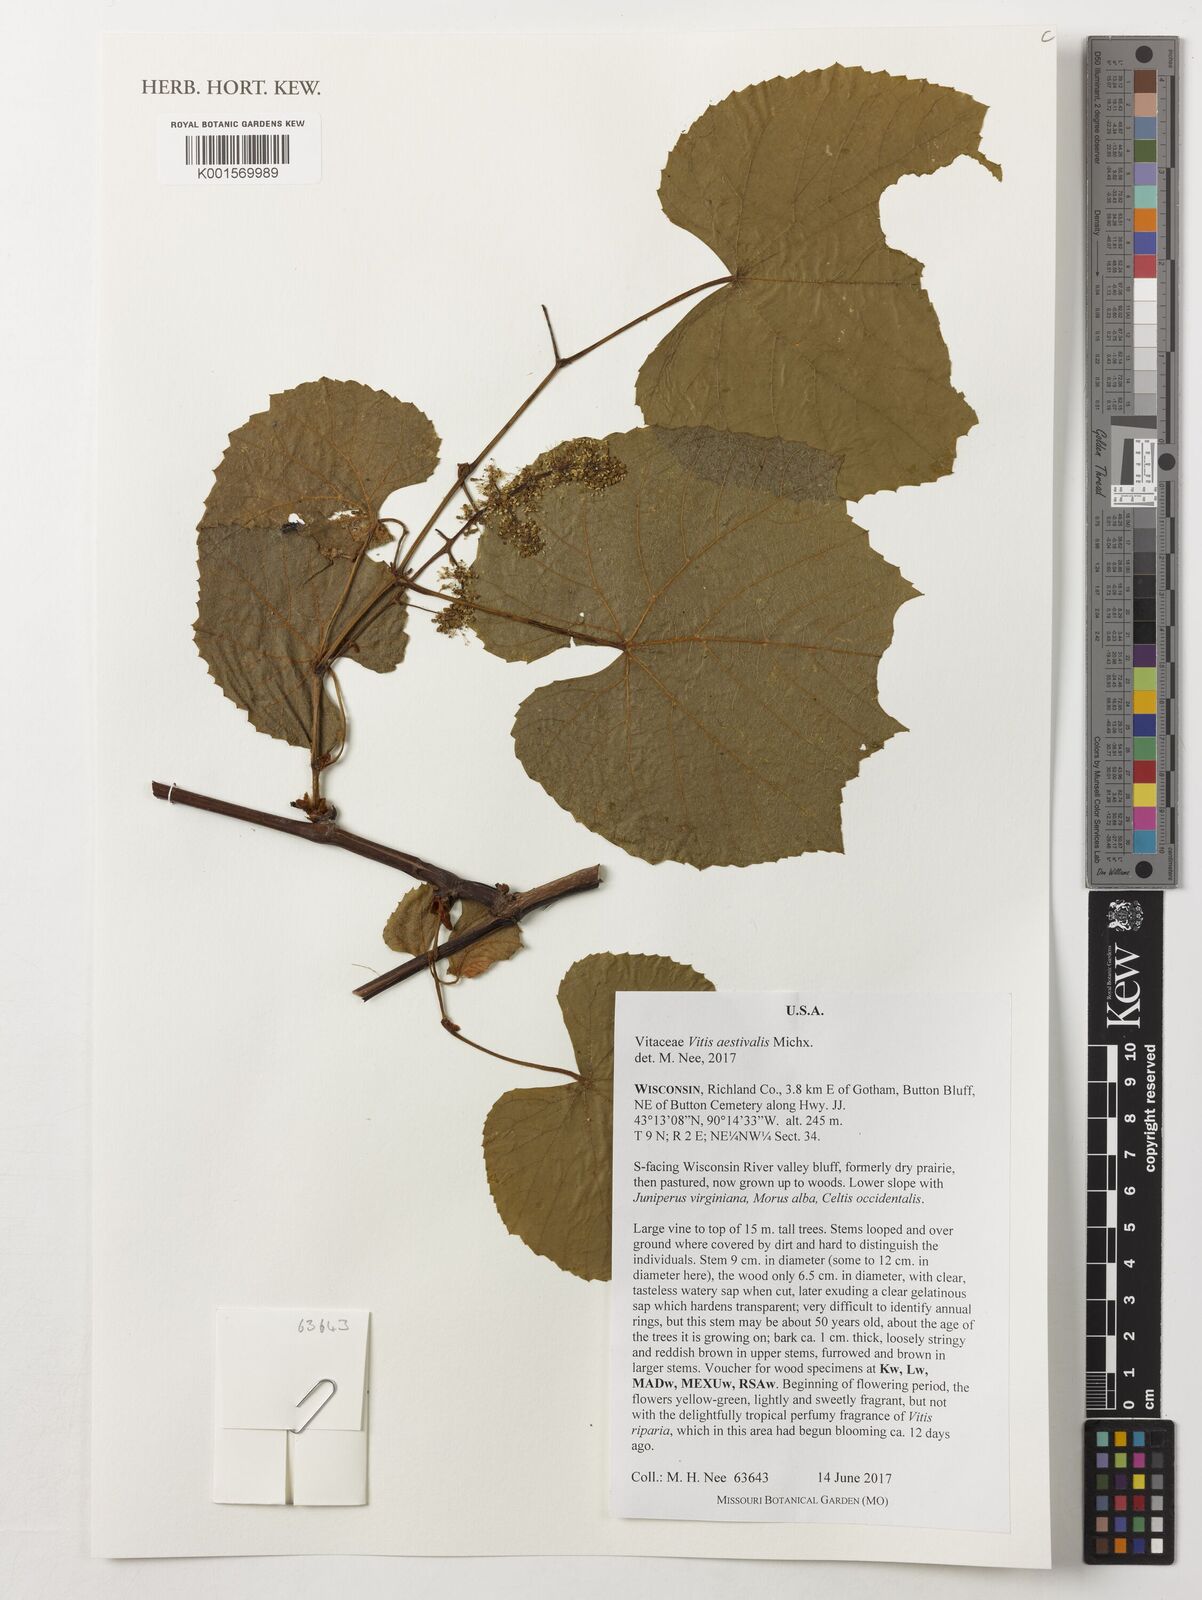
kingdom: Plantae
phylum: Tracheophyta
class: Magnoliopsida
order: Vitales
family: Vitaceae
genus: Vitis
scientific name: Vitis aestivalis
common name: Pigeon grape
